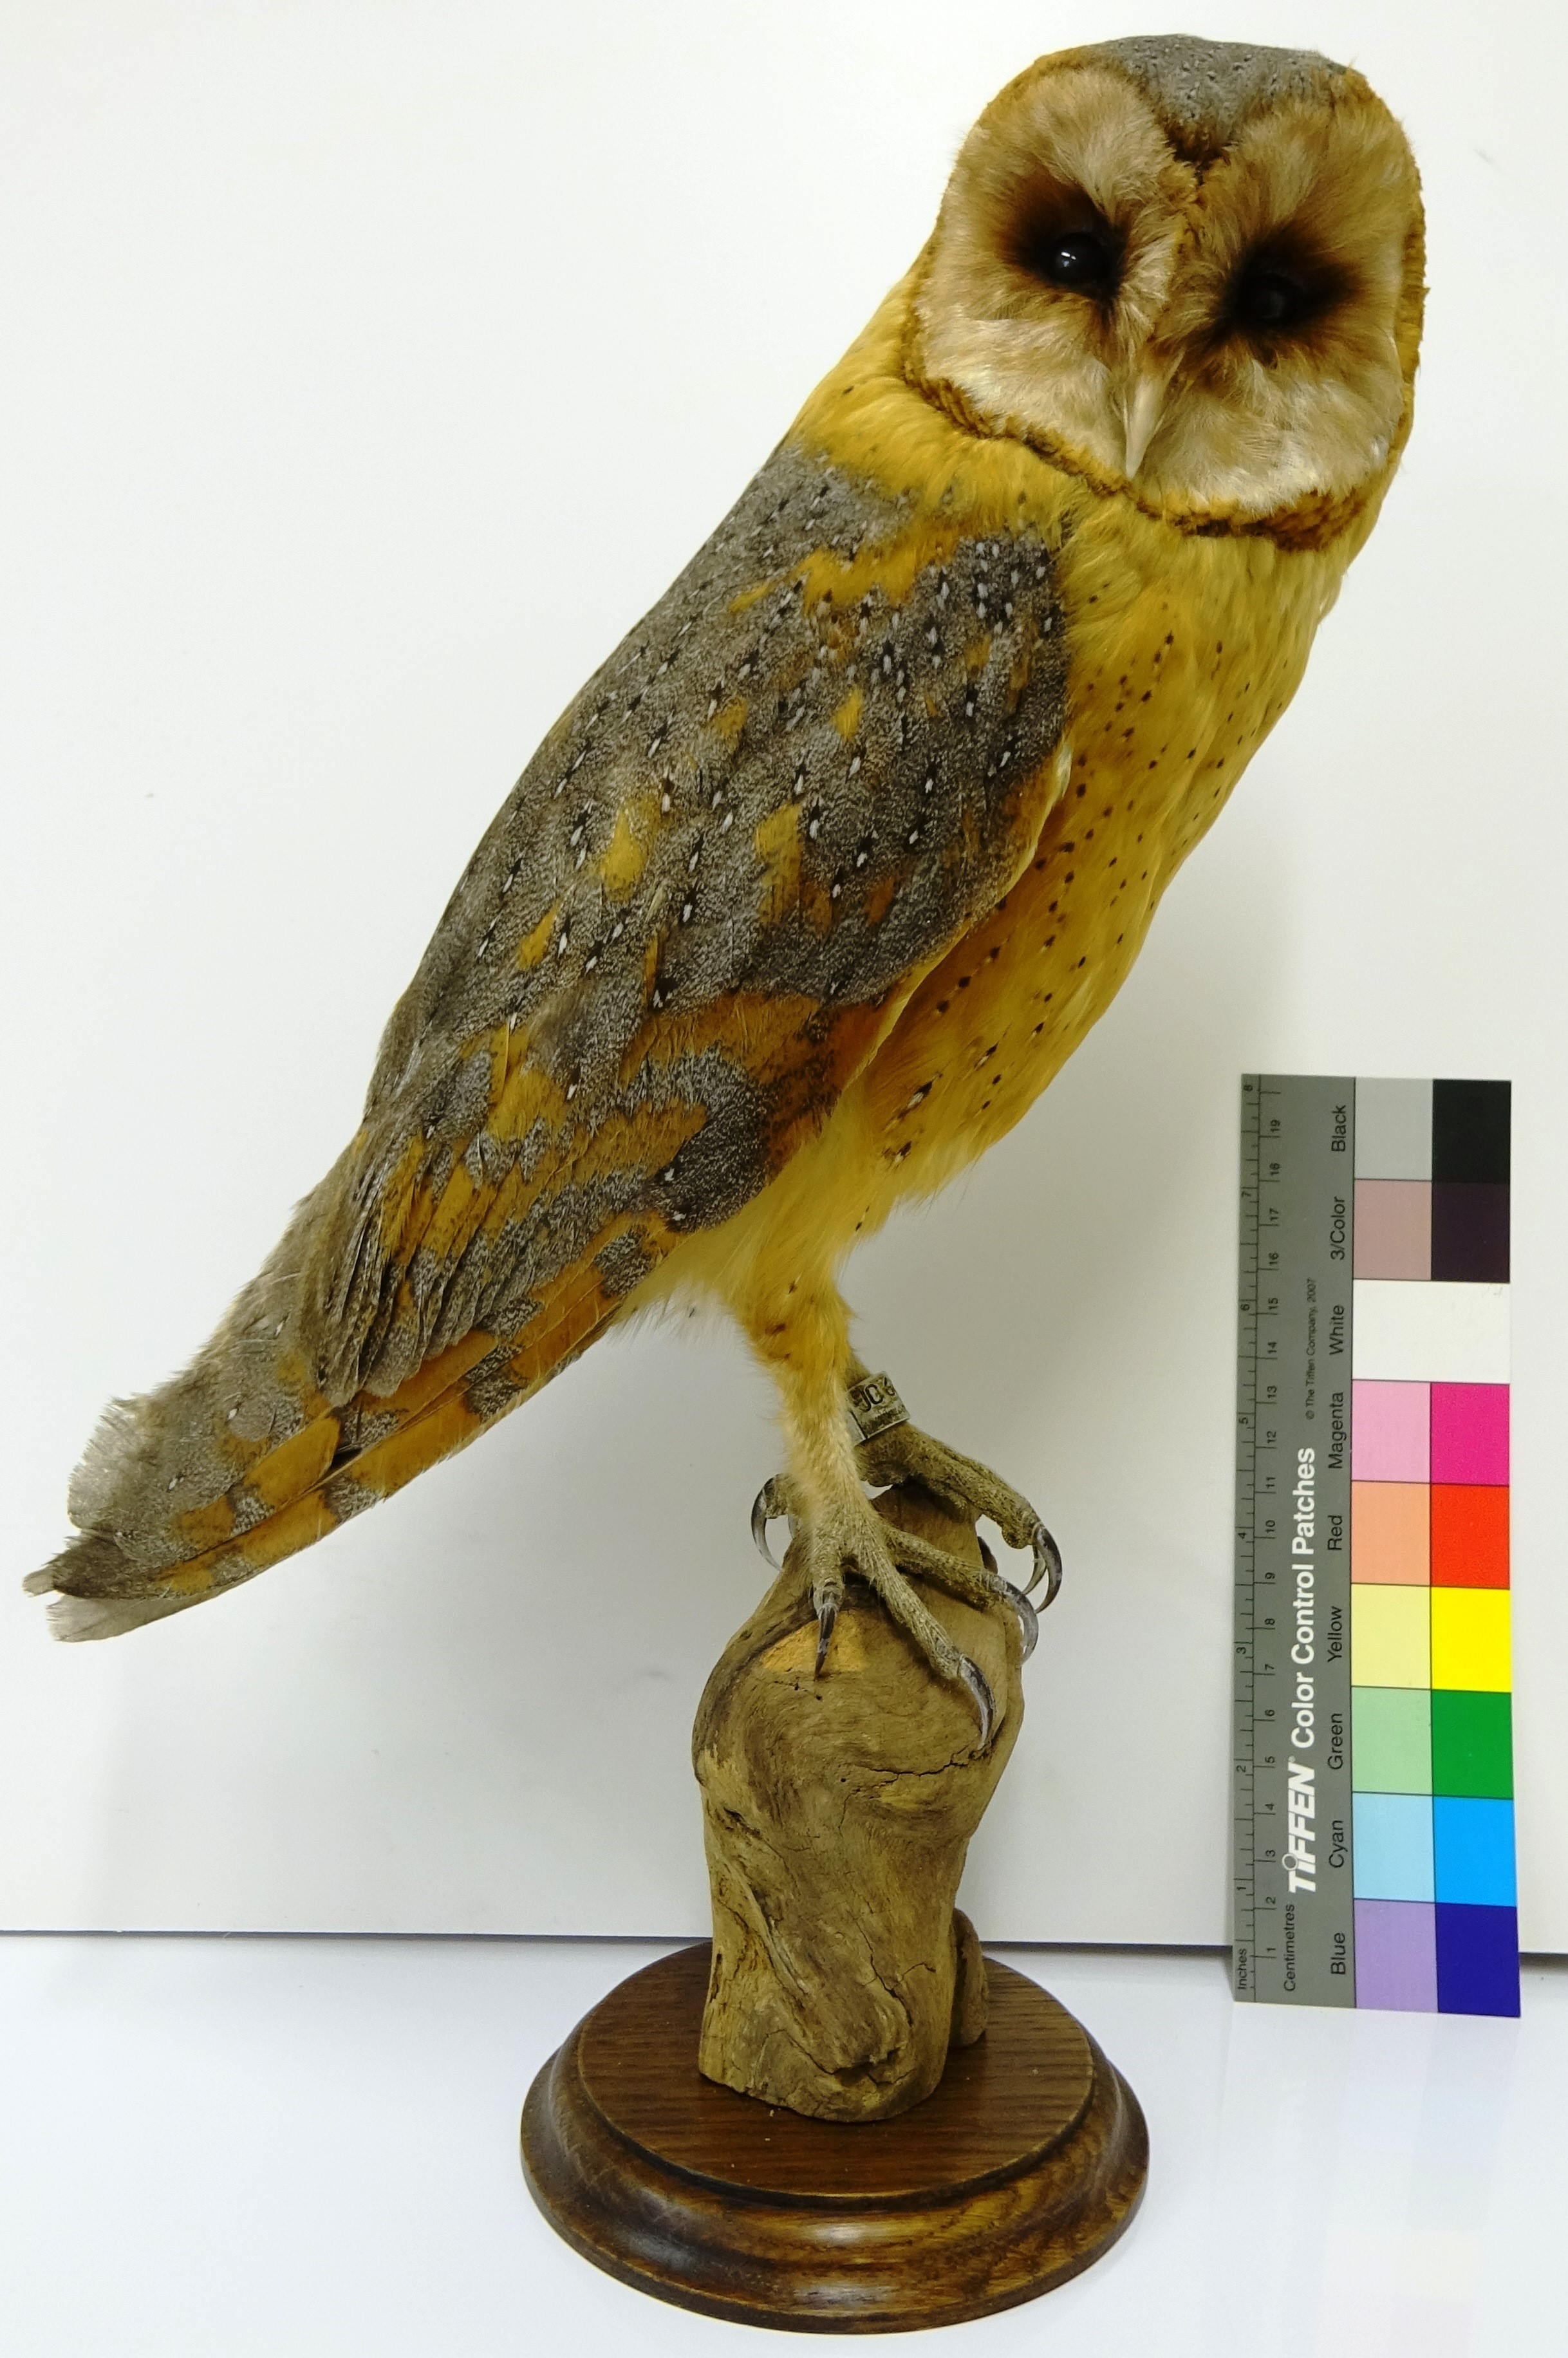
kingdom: Animalia
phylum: Chordata
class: Aves
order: Strigiformes
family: Tytonidae
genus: Tyto
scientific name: Tyto alba
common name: Barn owl
